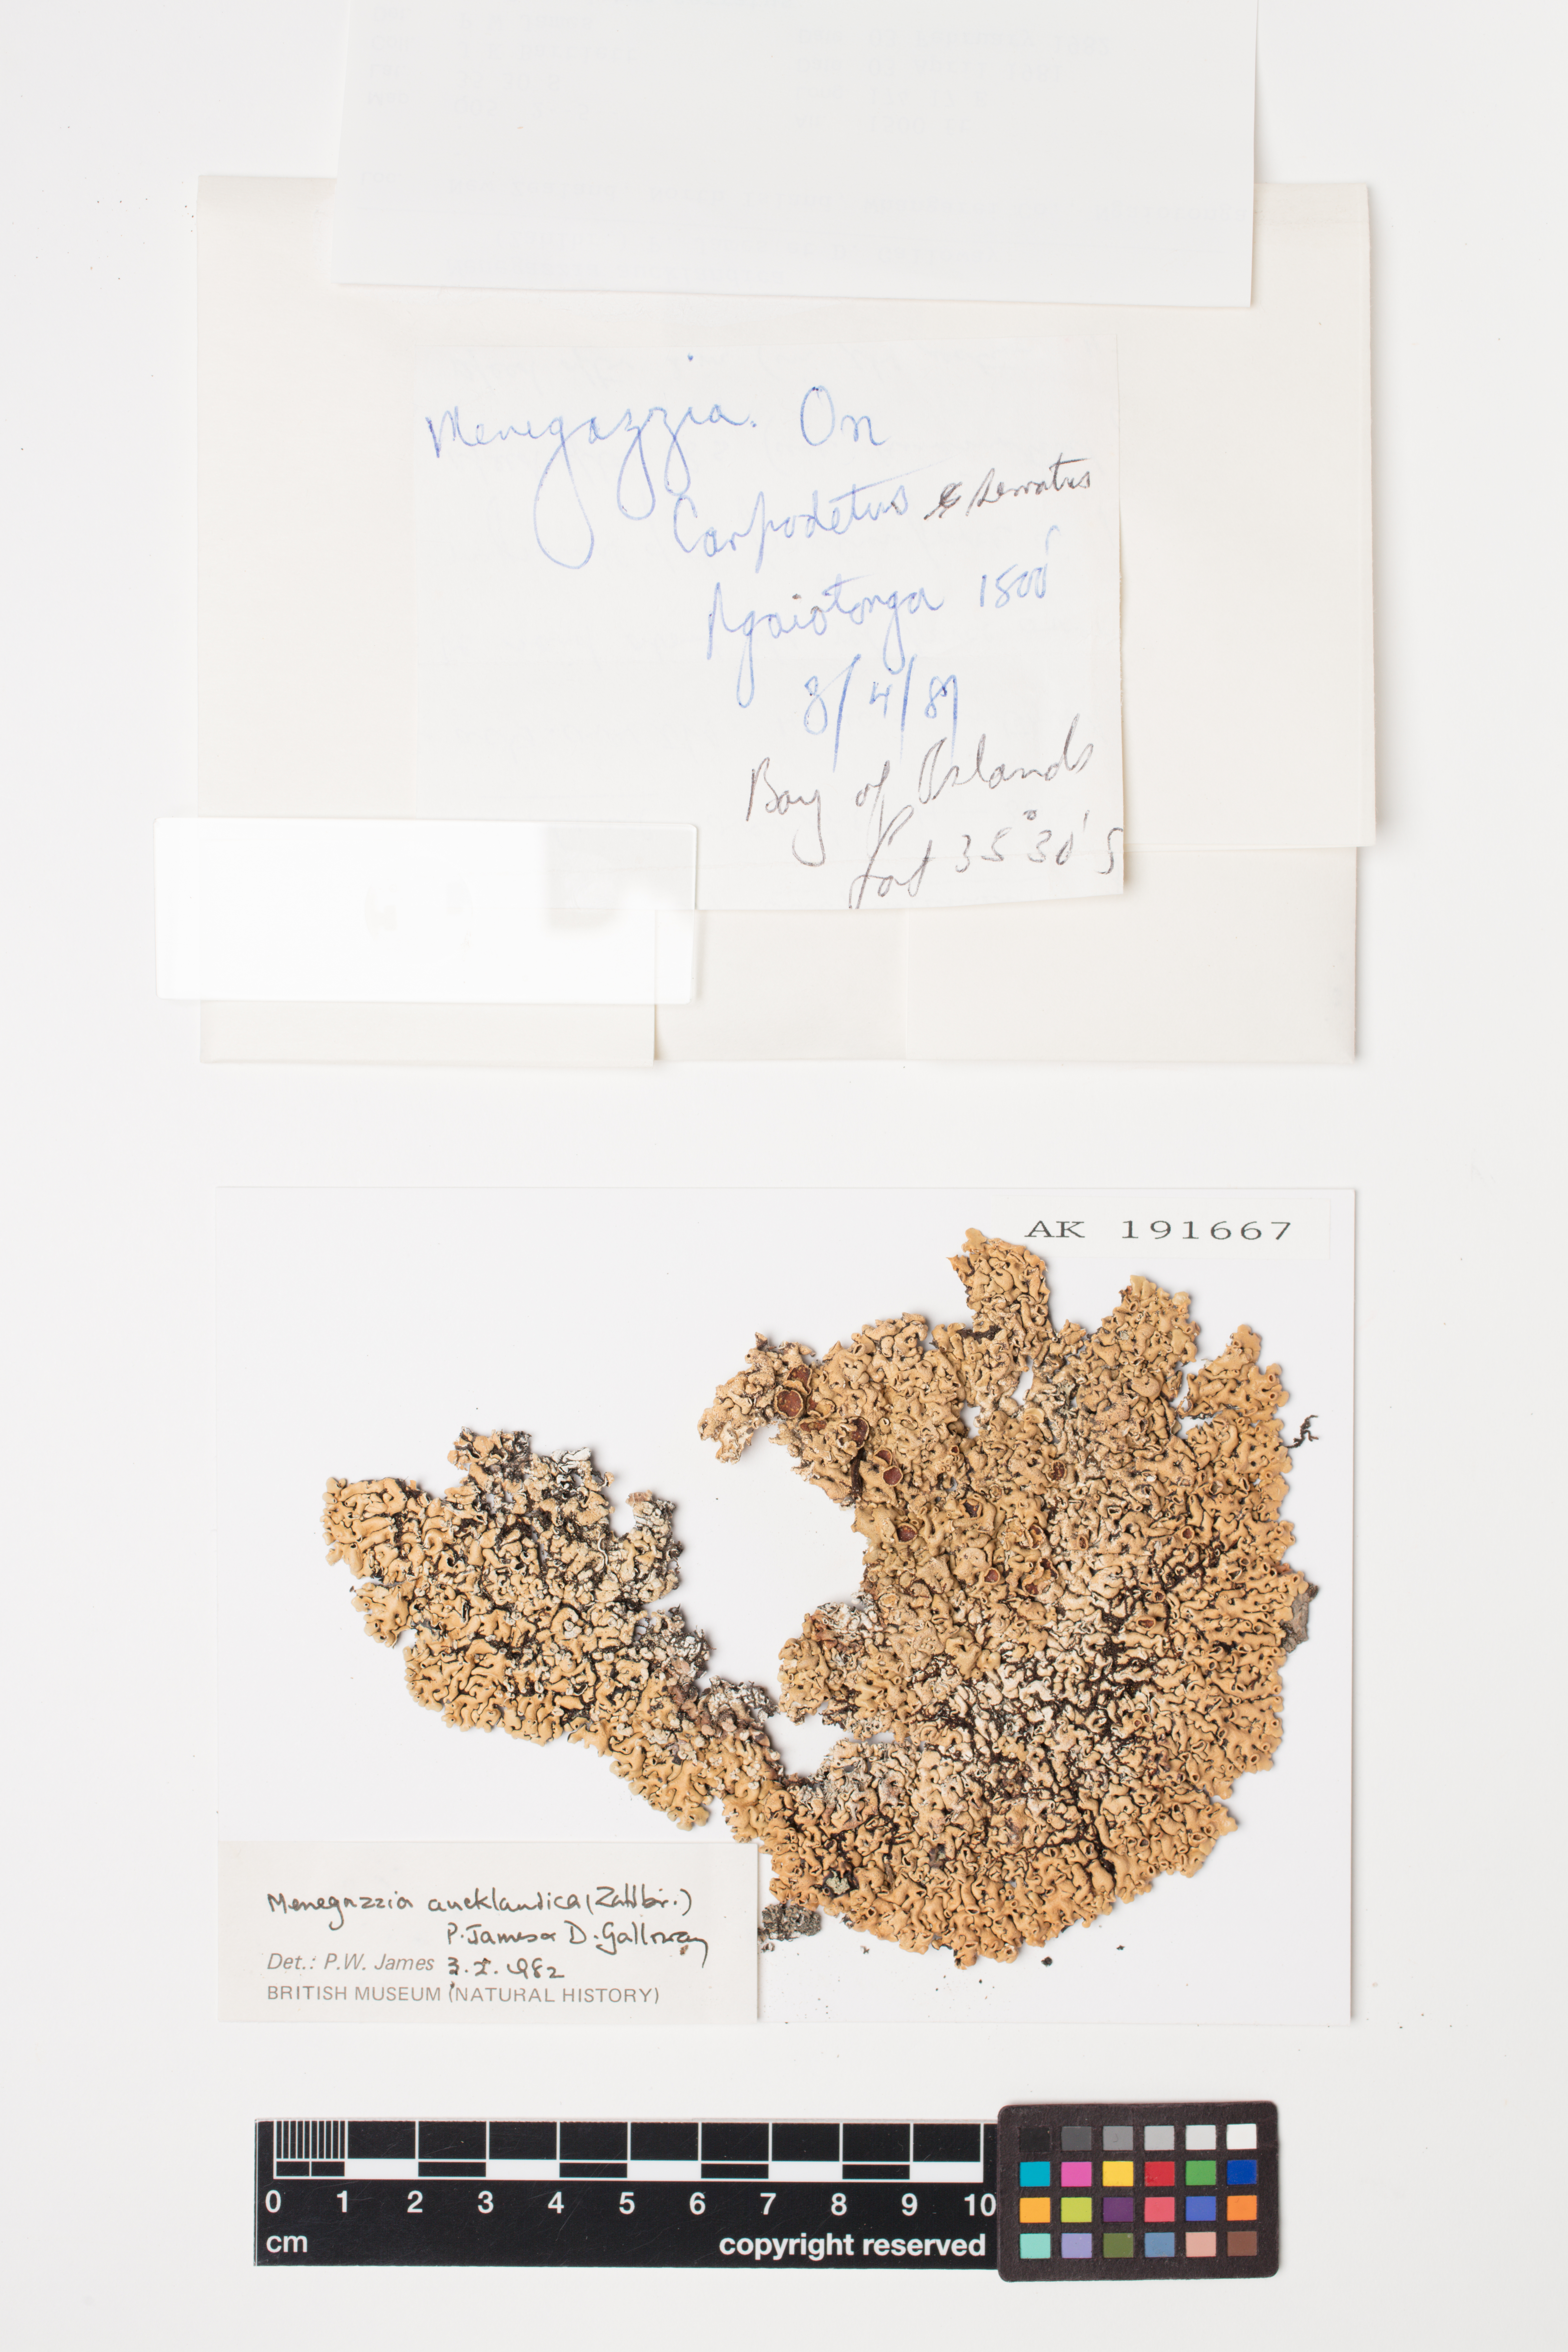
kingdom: Fungi
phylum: Ascomycota
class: Lecanoromycetes
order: Lecanorales
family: Parmeliaceae
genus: Menegazzia
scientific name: Menegazzia aucklandica
